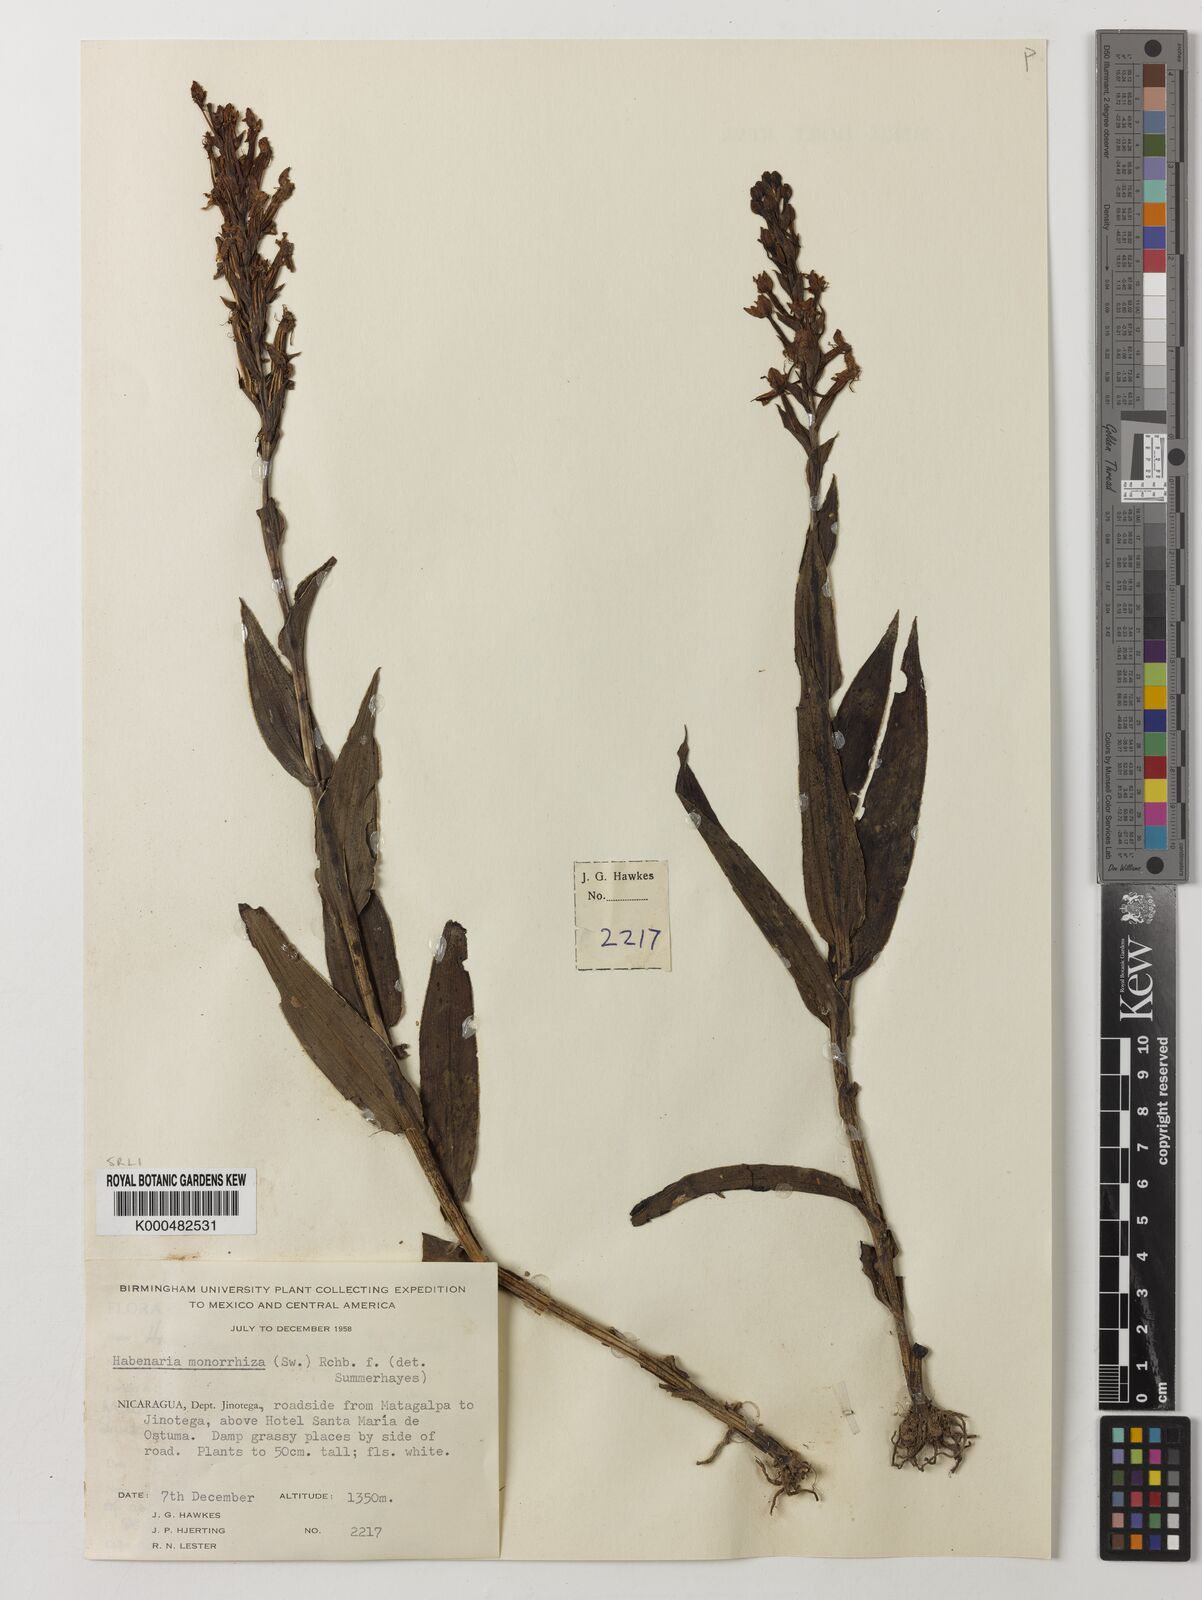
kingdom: Plantae
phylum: Tracheophyta
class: Liliopsida
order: Asparagales
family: Orchidaceae
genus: Habenaria
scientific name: Habenaria monorrhiza
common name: Tropical bog orchid
